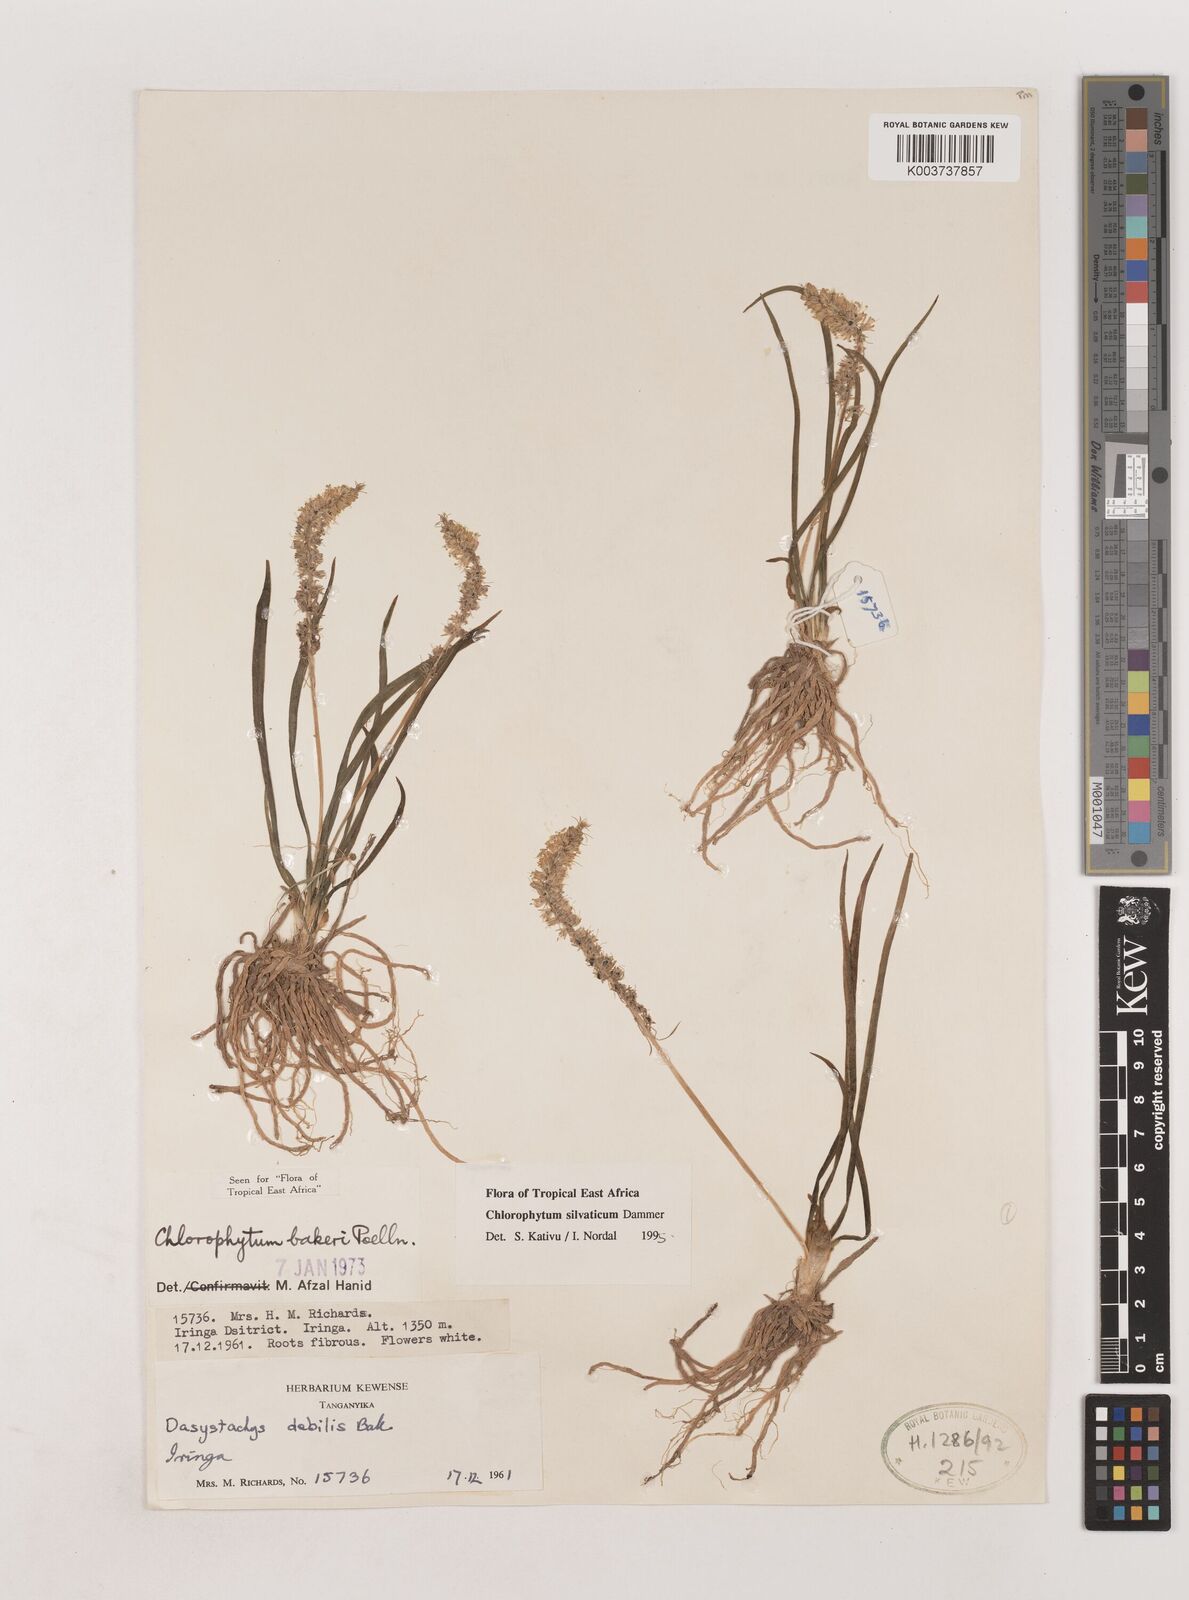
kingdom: Plantae
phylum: Tracheophyta
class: Liliopsida
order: Asparagales
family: Asparagaceae
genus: Chlorophytum
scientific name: Chlorophytum africanum
